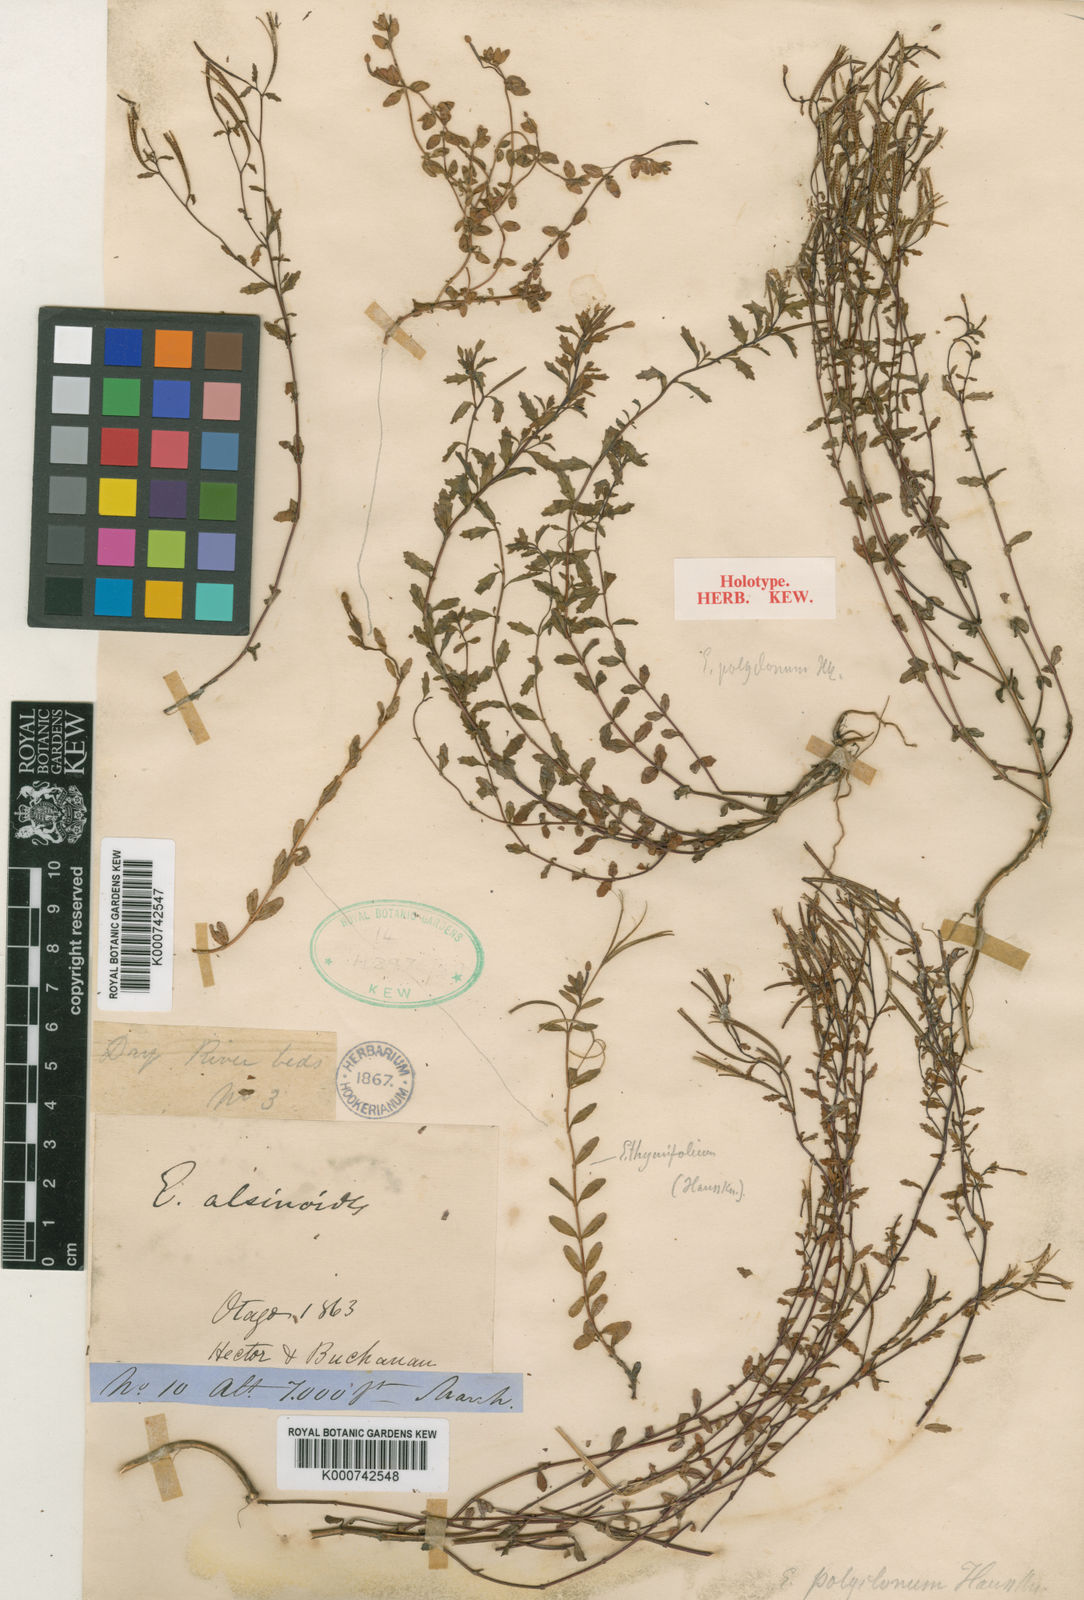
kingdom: Plantae
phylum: Tracheophyta
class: Magnoliopsida
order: Myrtales
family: Onagraceae
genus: Epilobium
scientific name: Epilobium melanocaulon
